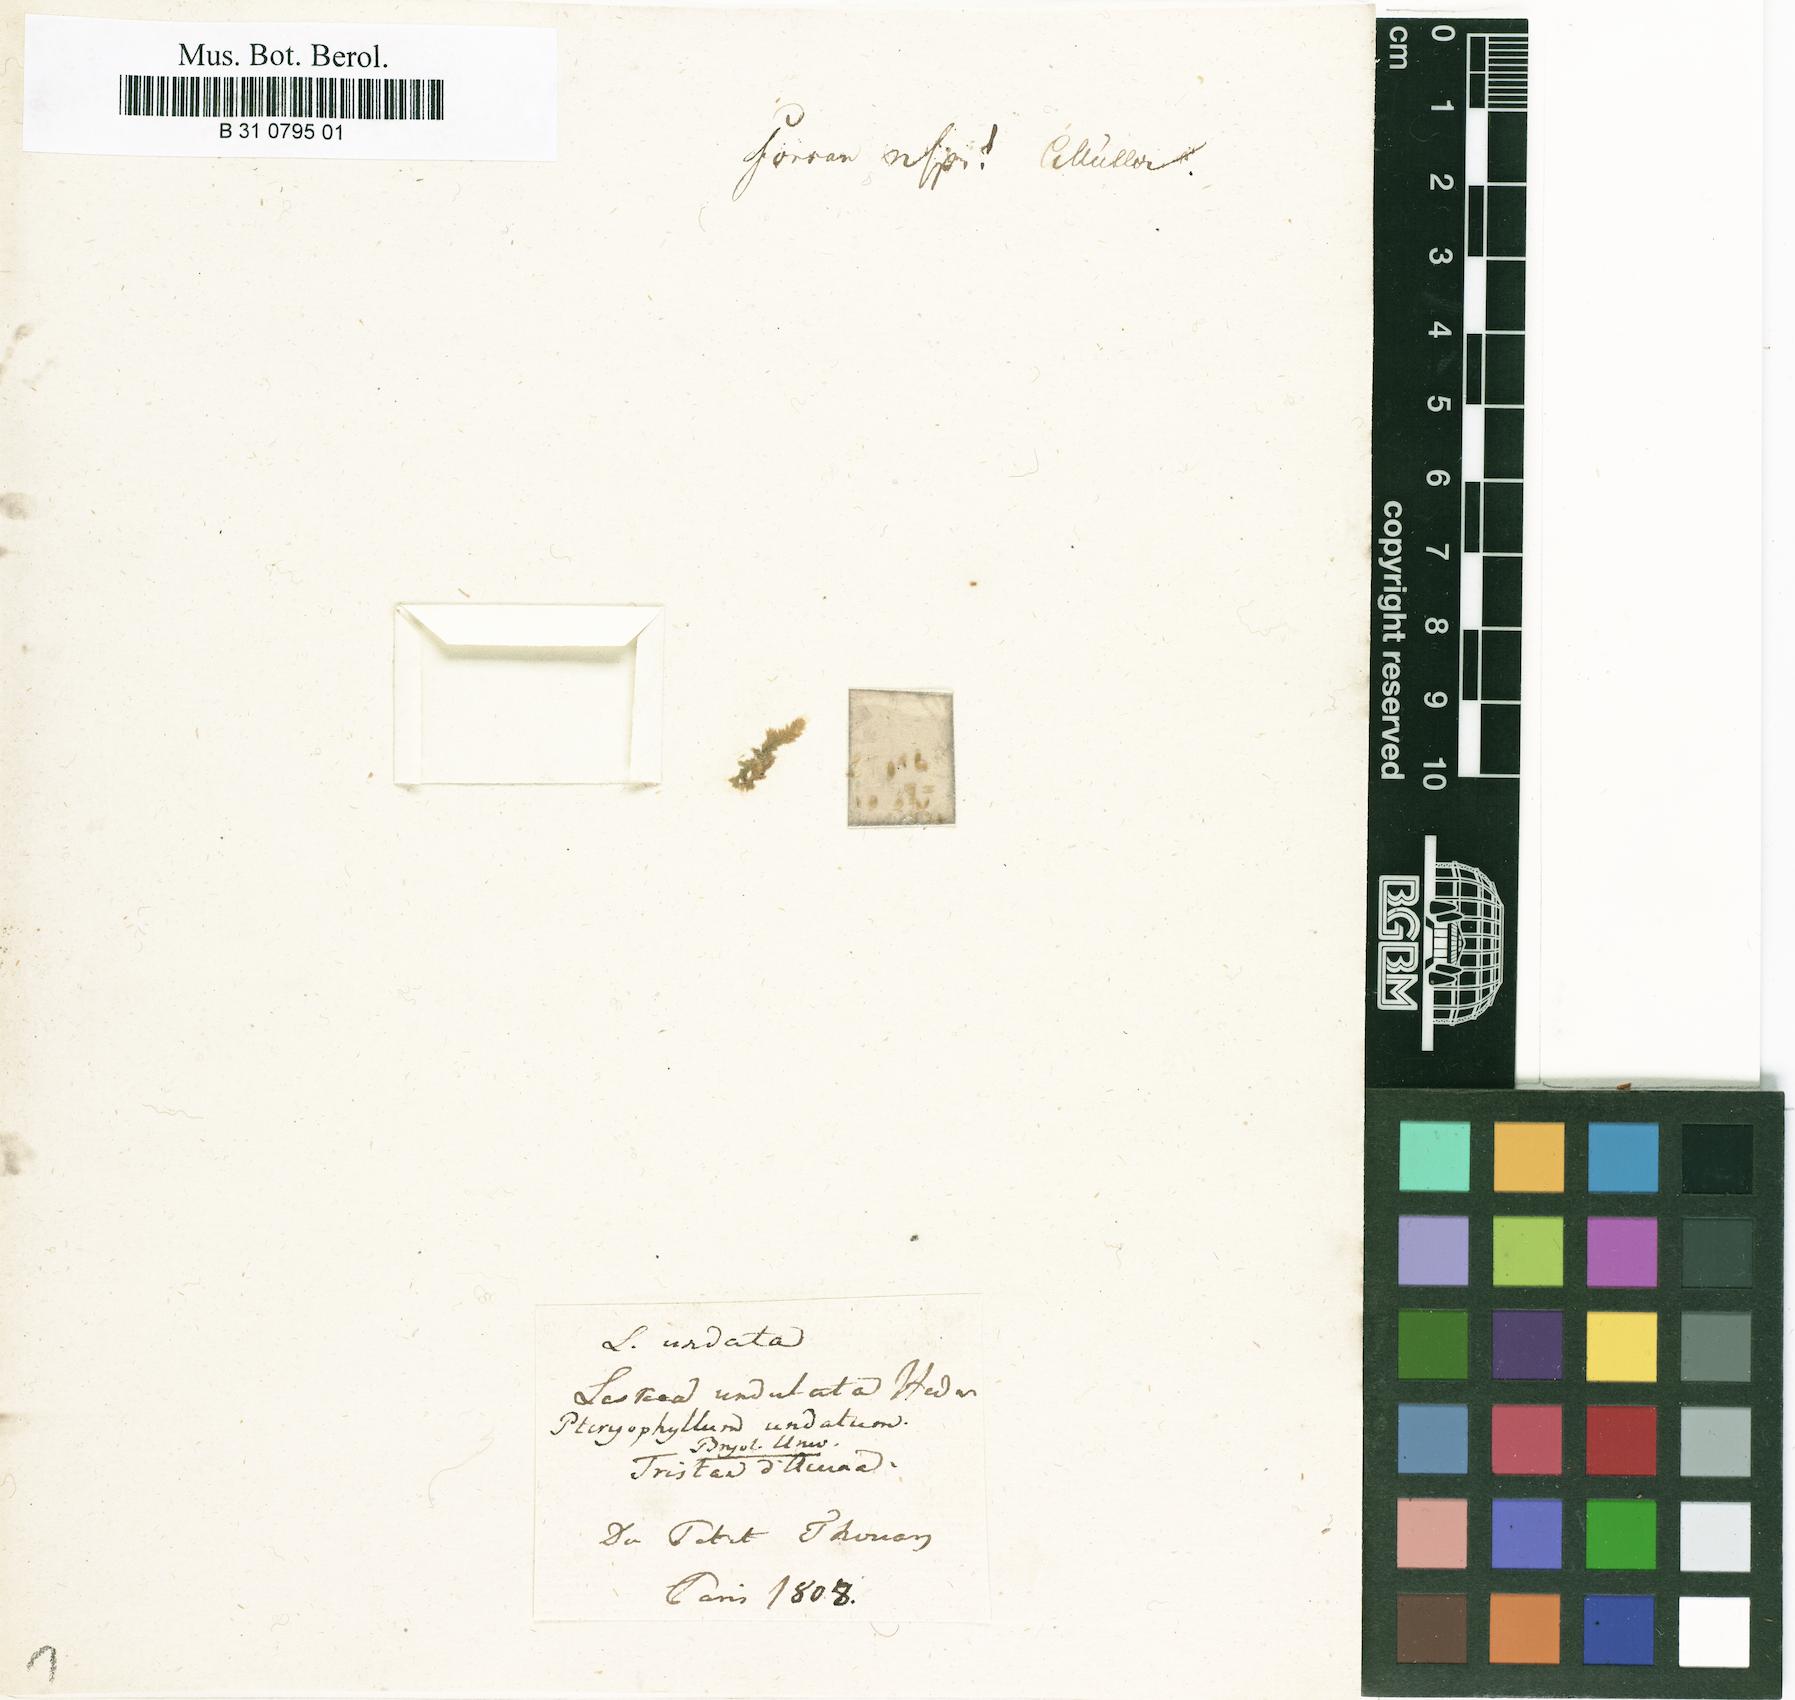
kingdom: Plantae
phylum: Bryophyta
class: Bryopsida
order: Hookeriales
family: Pilotrichaceae
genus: Thamniopsis
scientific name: Thamniopsis undata
